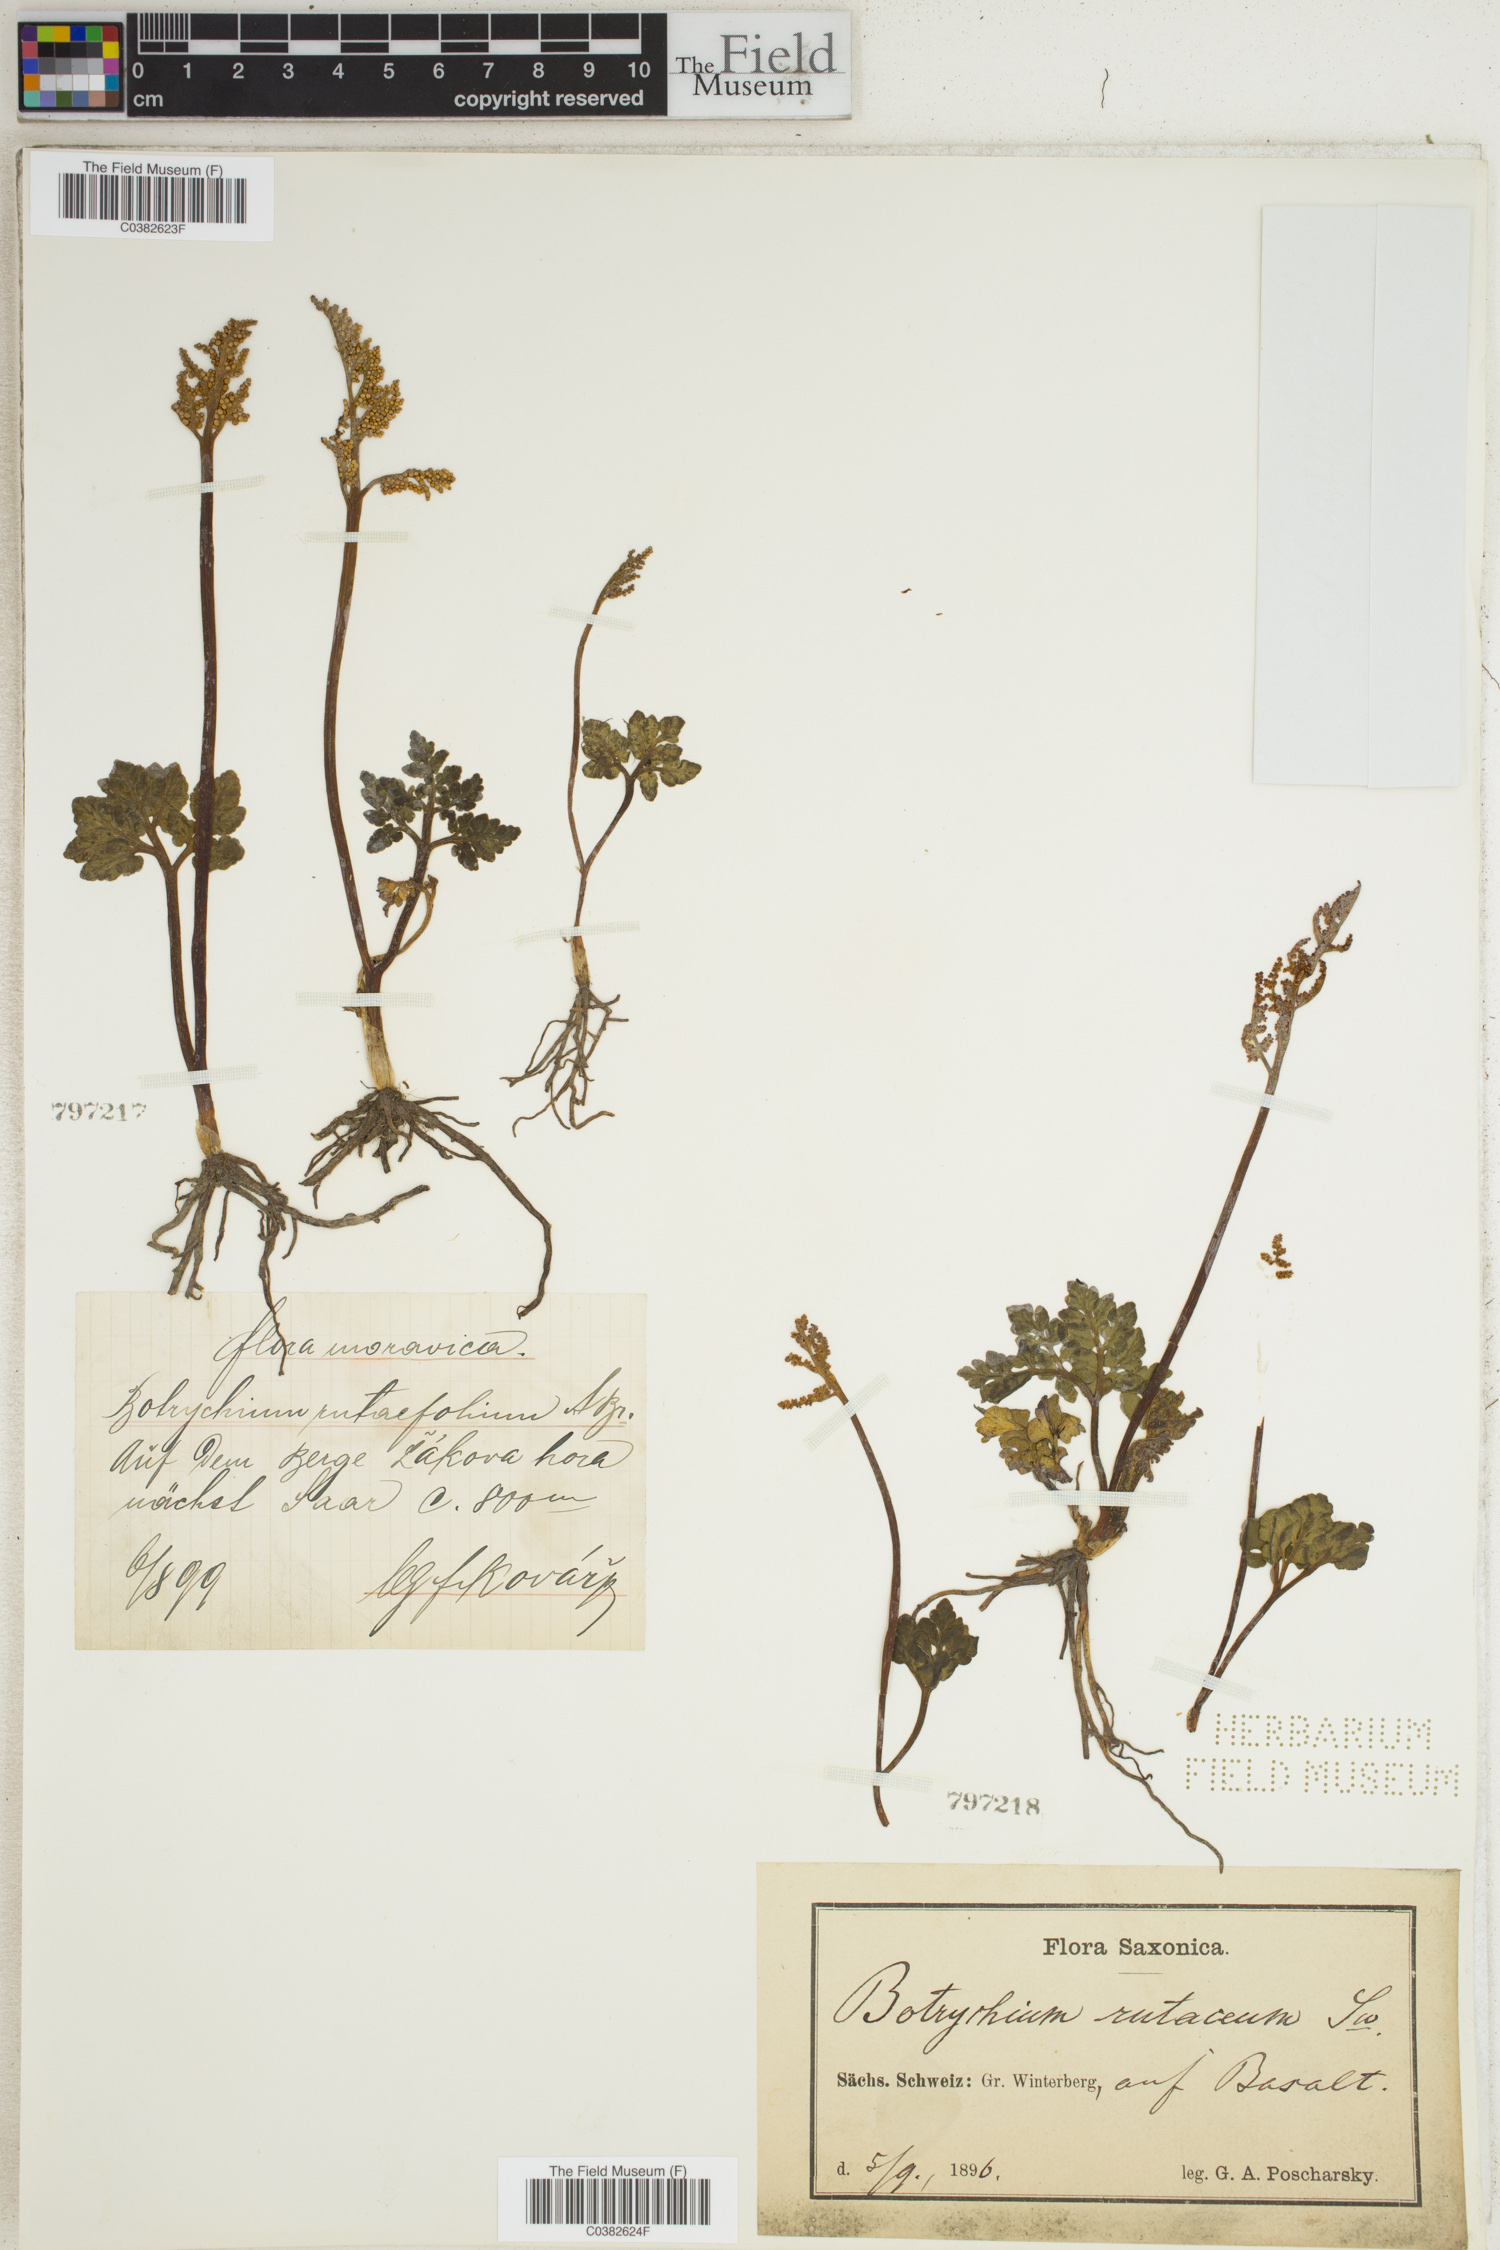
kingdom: Plantae
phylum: Tracheophyta
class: Polypodiopsida
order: Ophioglossales
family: Ophioglossaceae
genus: Sceptridium
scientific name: Sceptridium robustum
